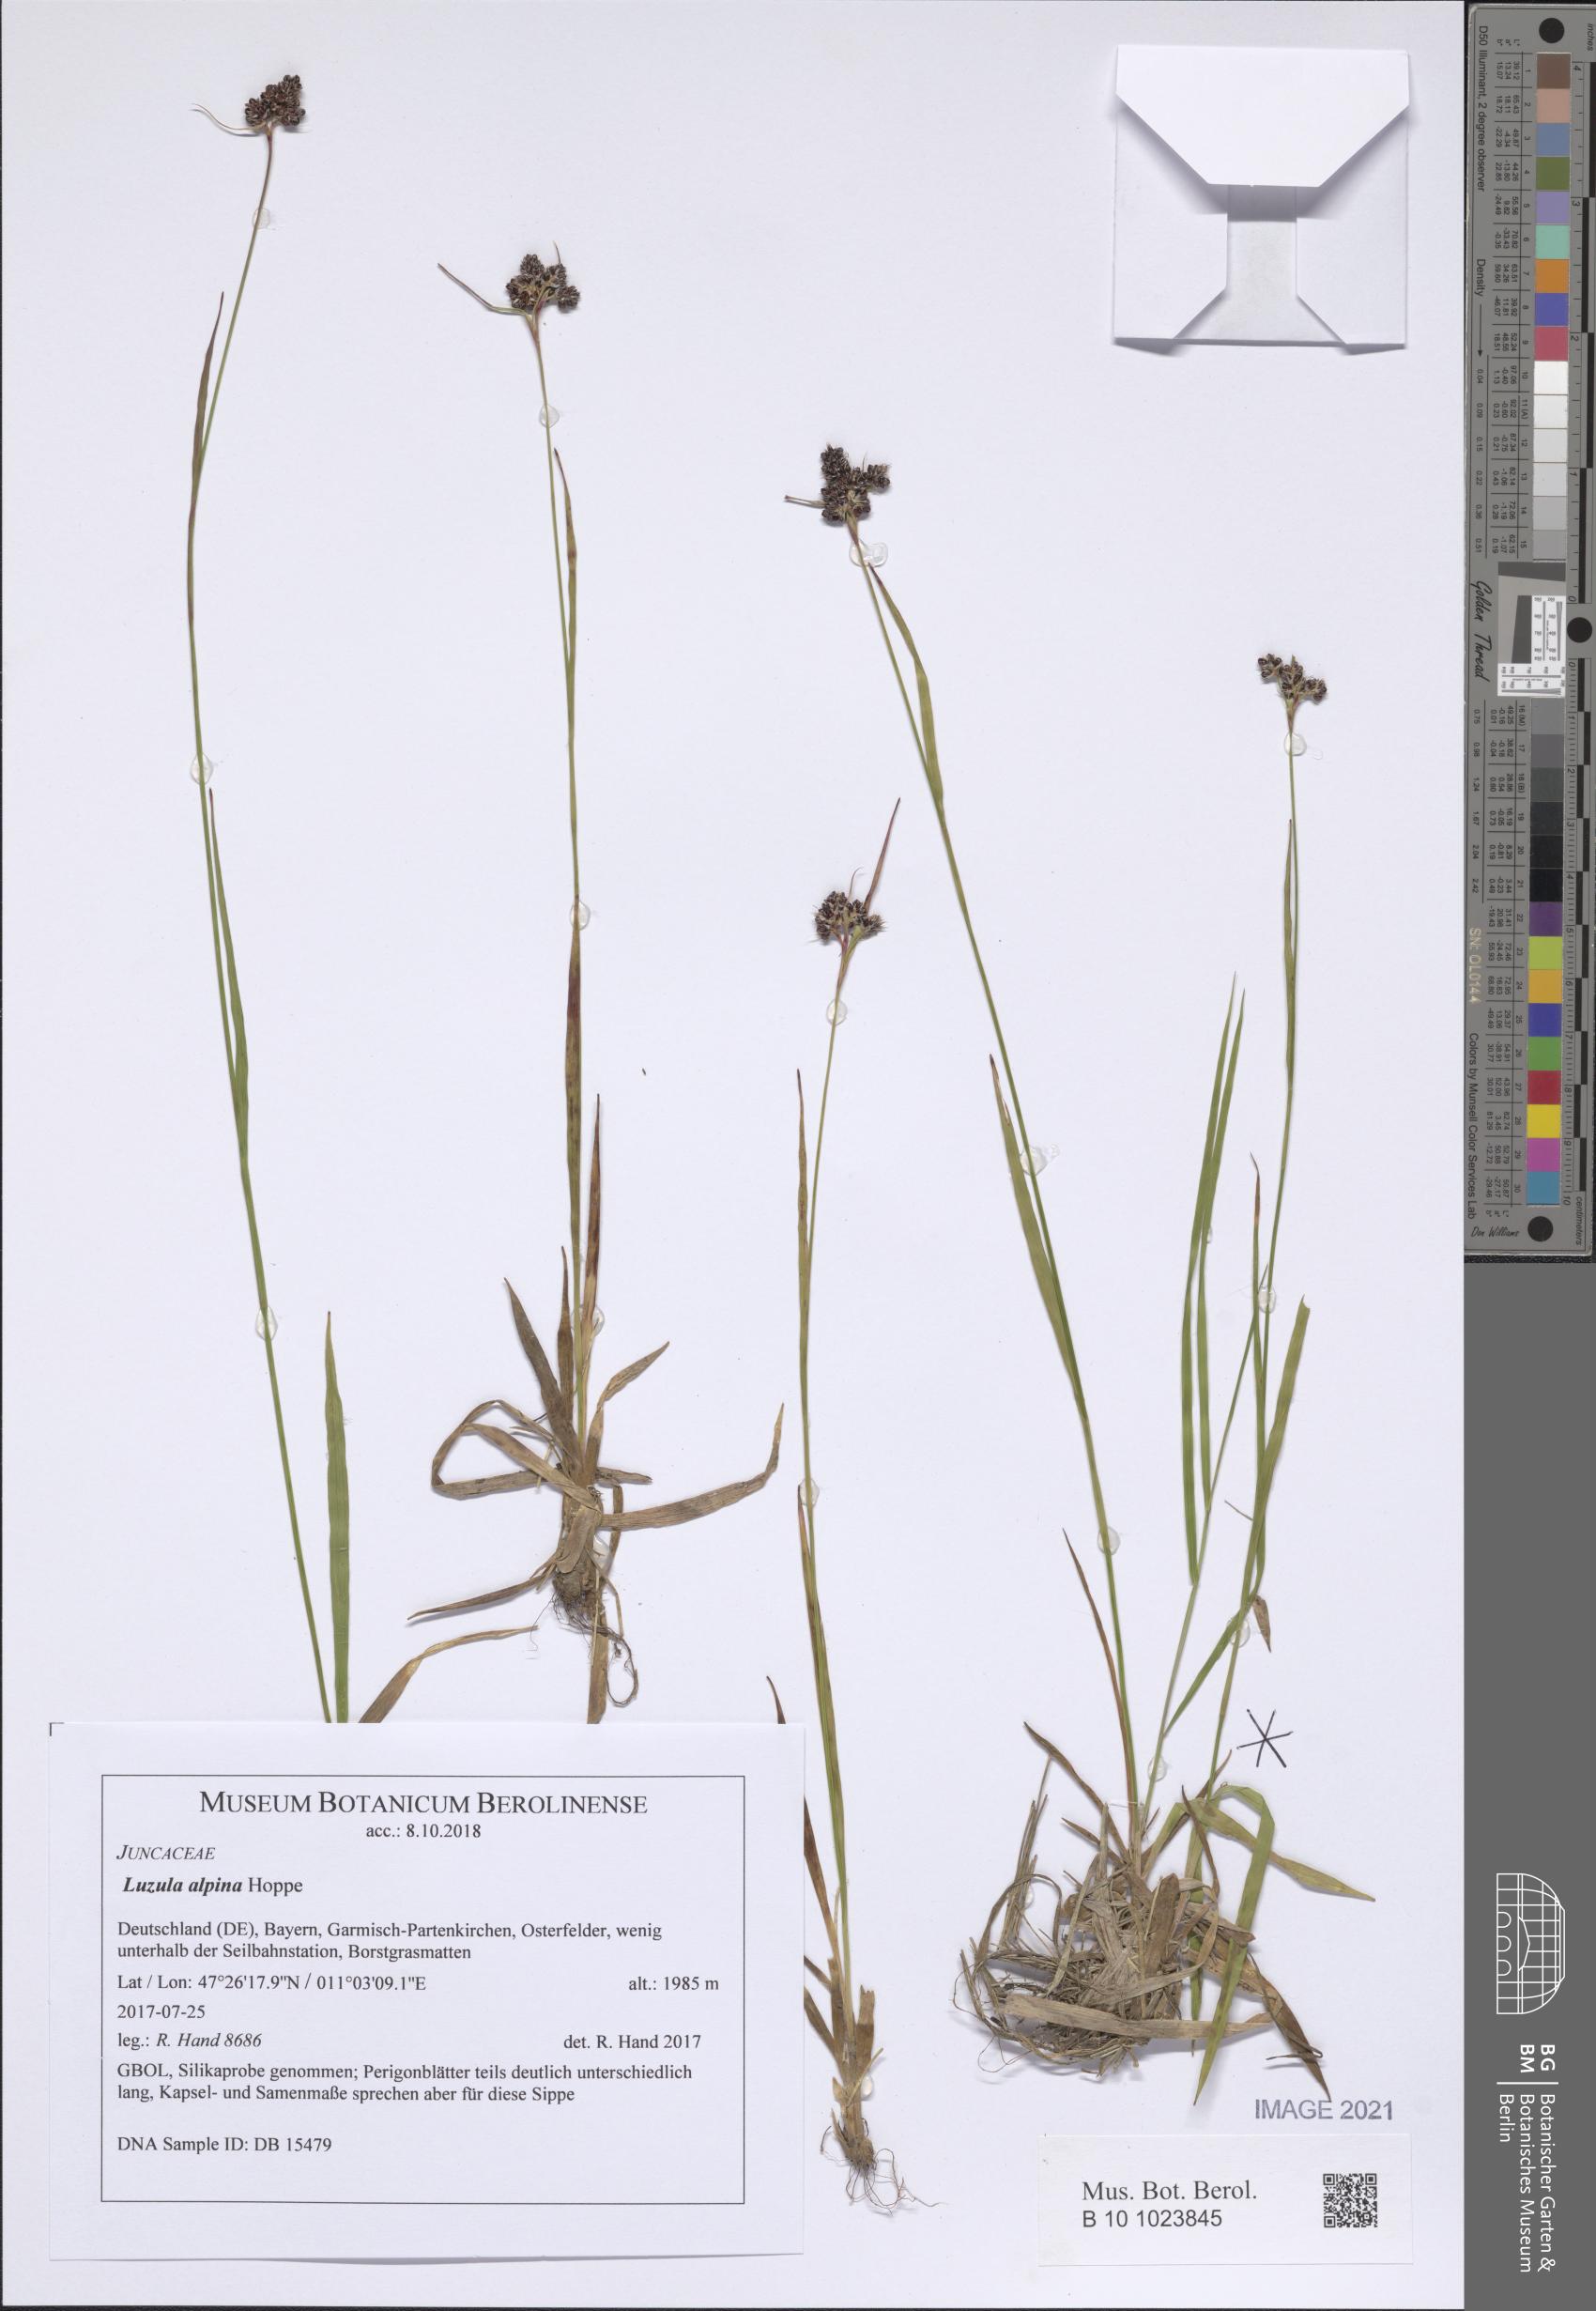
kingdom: Plantae
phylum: Tracheophyta
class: Liliopsida
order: Poales
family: Juncaceae
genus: Luzula
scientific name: Luzula alpina
